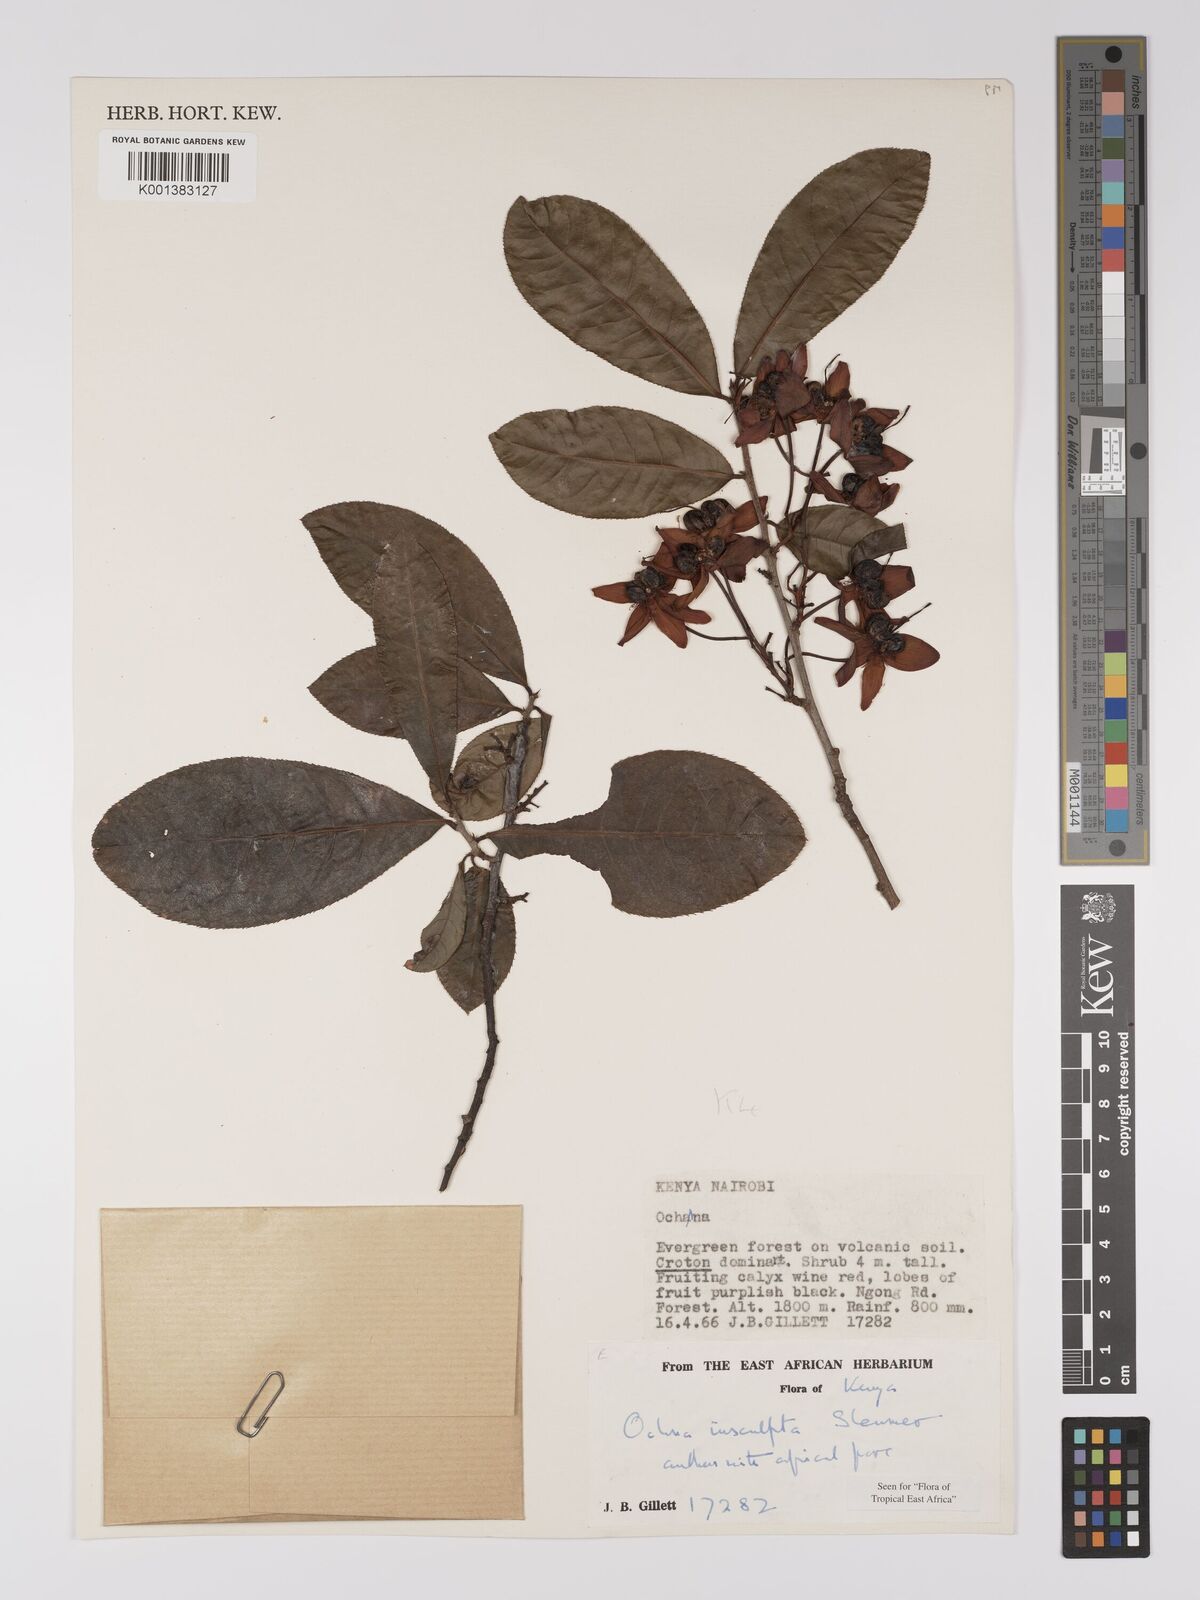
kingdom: Plantae
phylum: Tracheophyta
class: Magnoliopsida
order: Malpighiales
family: Ochnaceae
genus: Ochna
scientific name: Ochna insculpta
